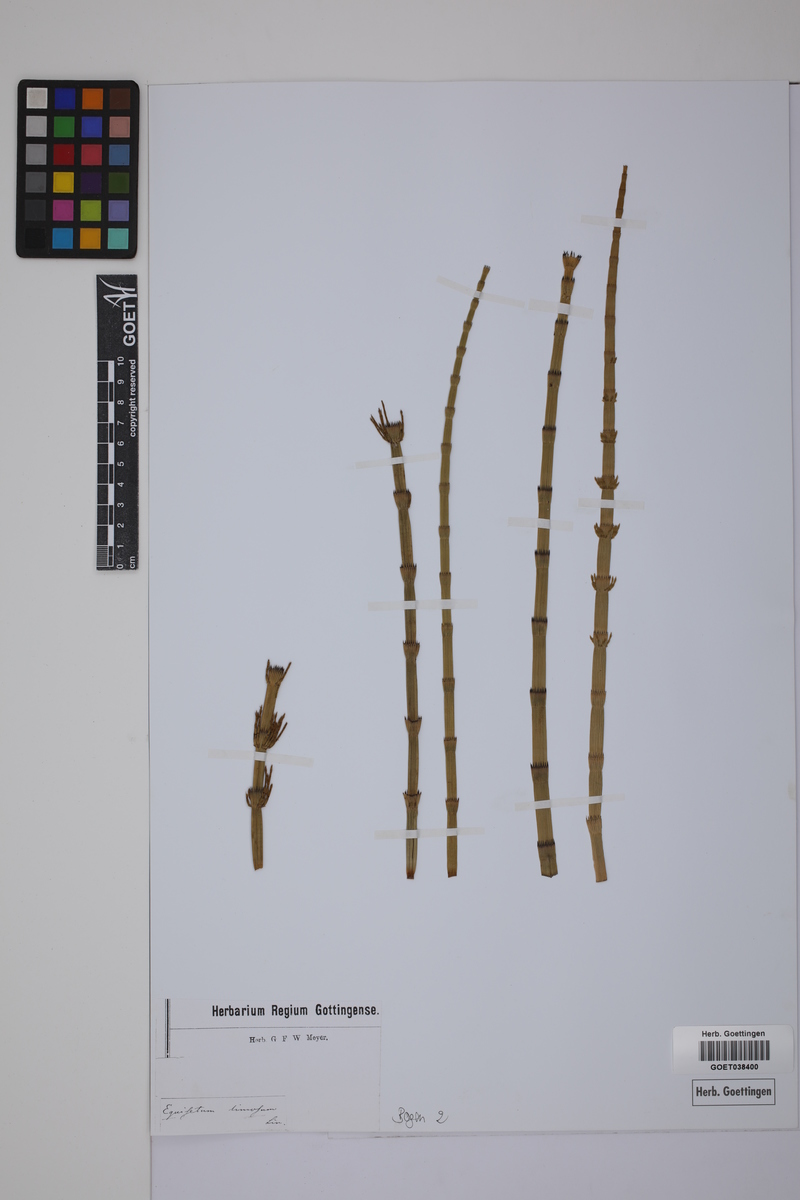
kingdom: Plantae
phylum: Tracheophyta
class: Polypodiopsida
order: Equisetales
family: Equisetaceae
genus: Equisetum
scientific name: Equisetum fluviatile
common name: Water horsetail
